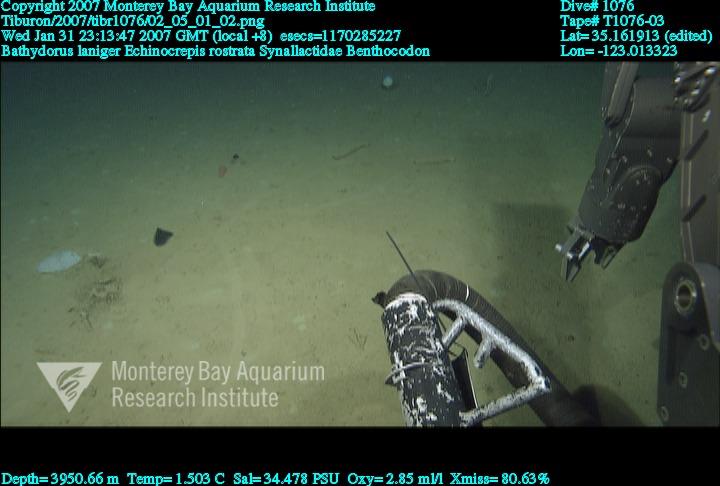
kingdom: Animalia
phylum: Porifera
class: Hexactinellida
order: Lyssacinosida
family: Rossellidae
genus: Bathydorus
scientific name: Bathydorus laniger
